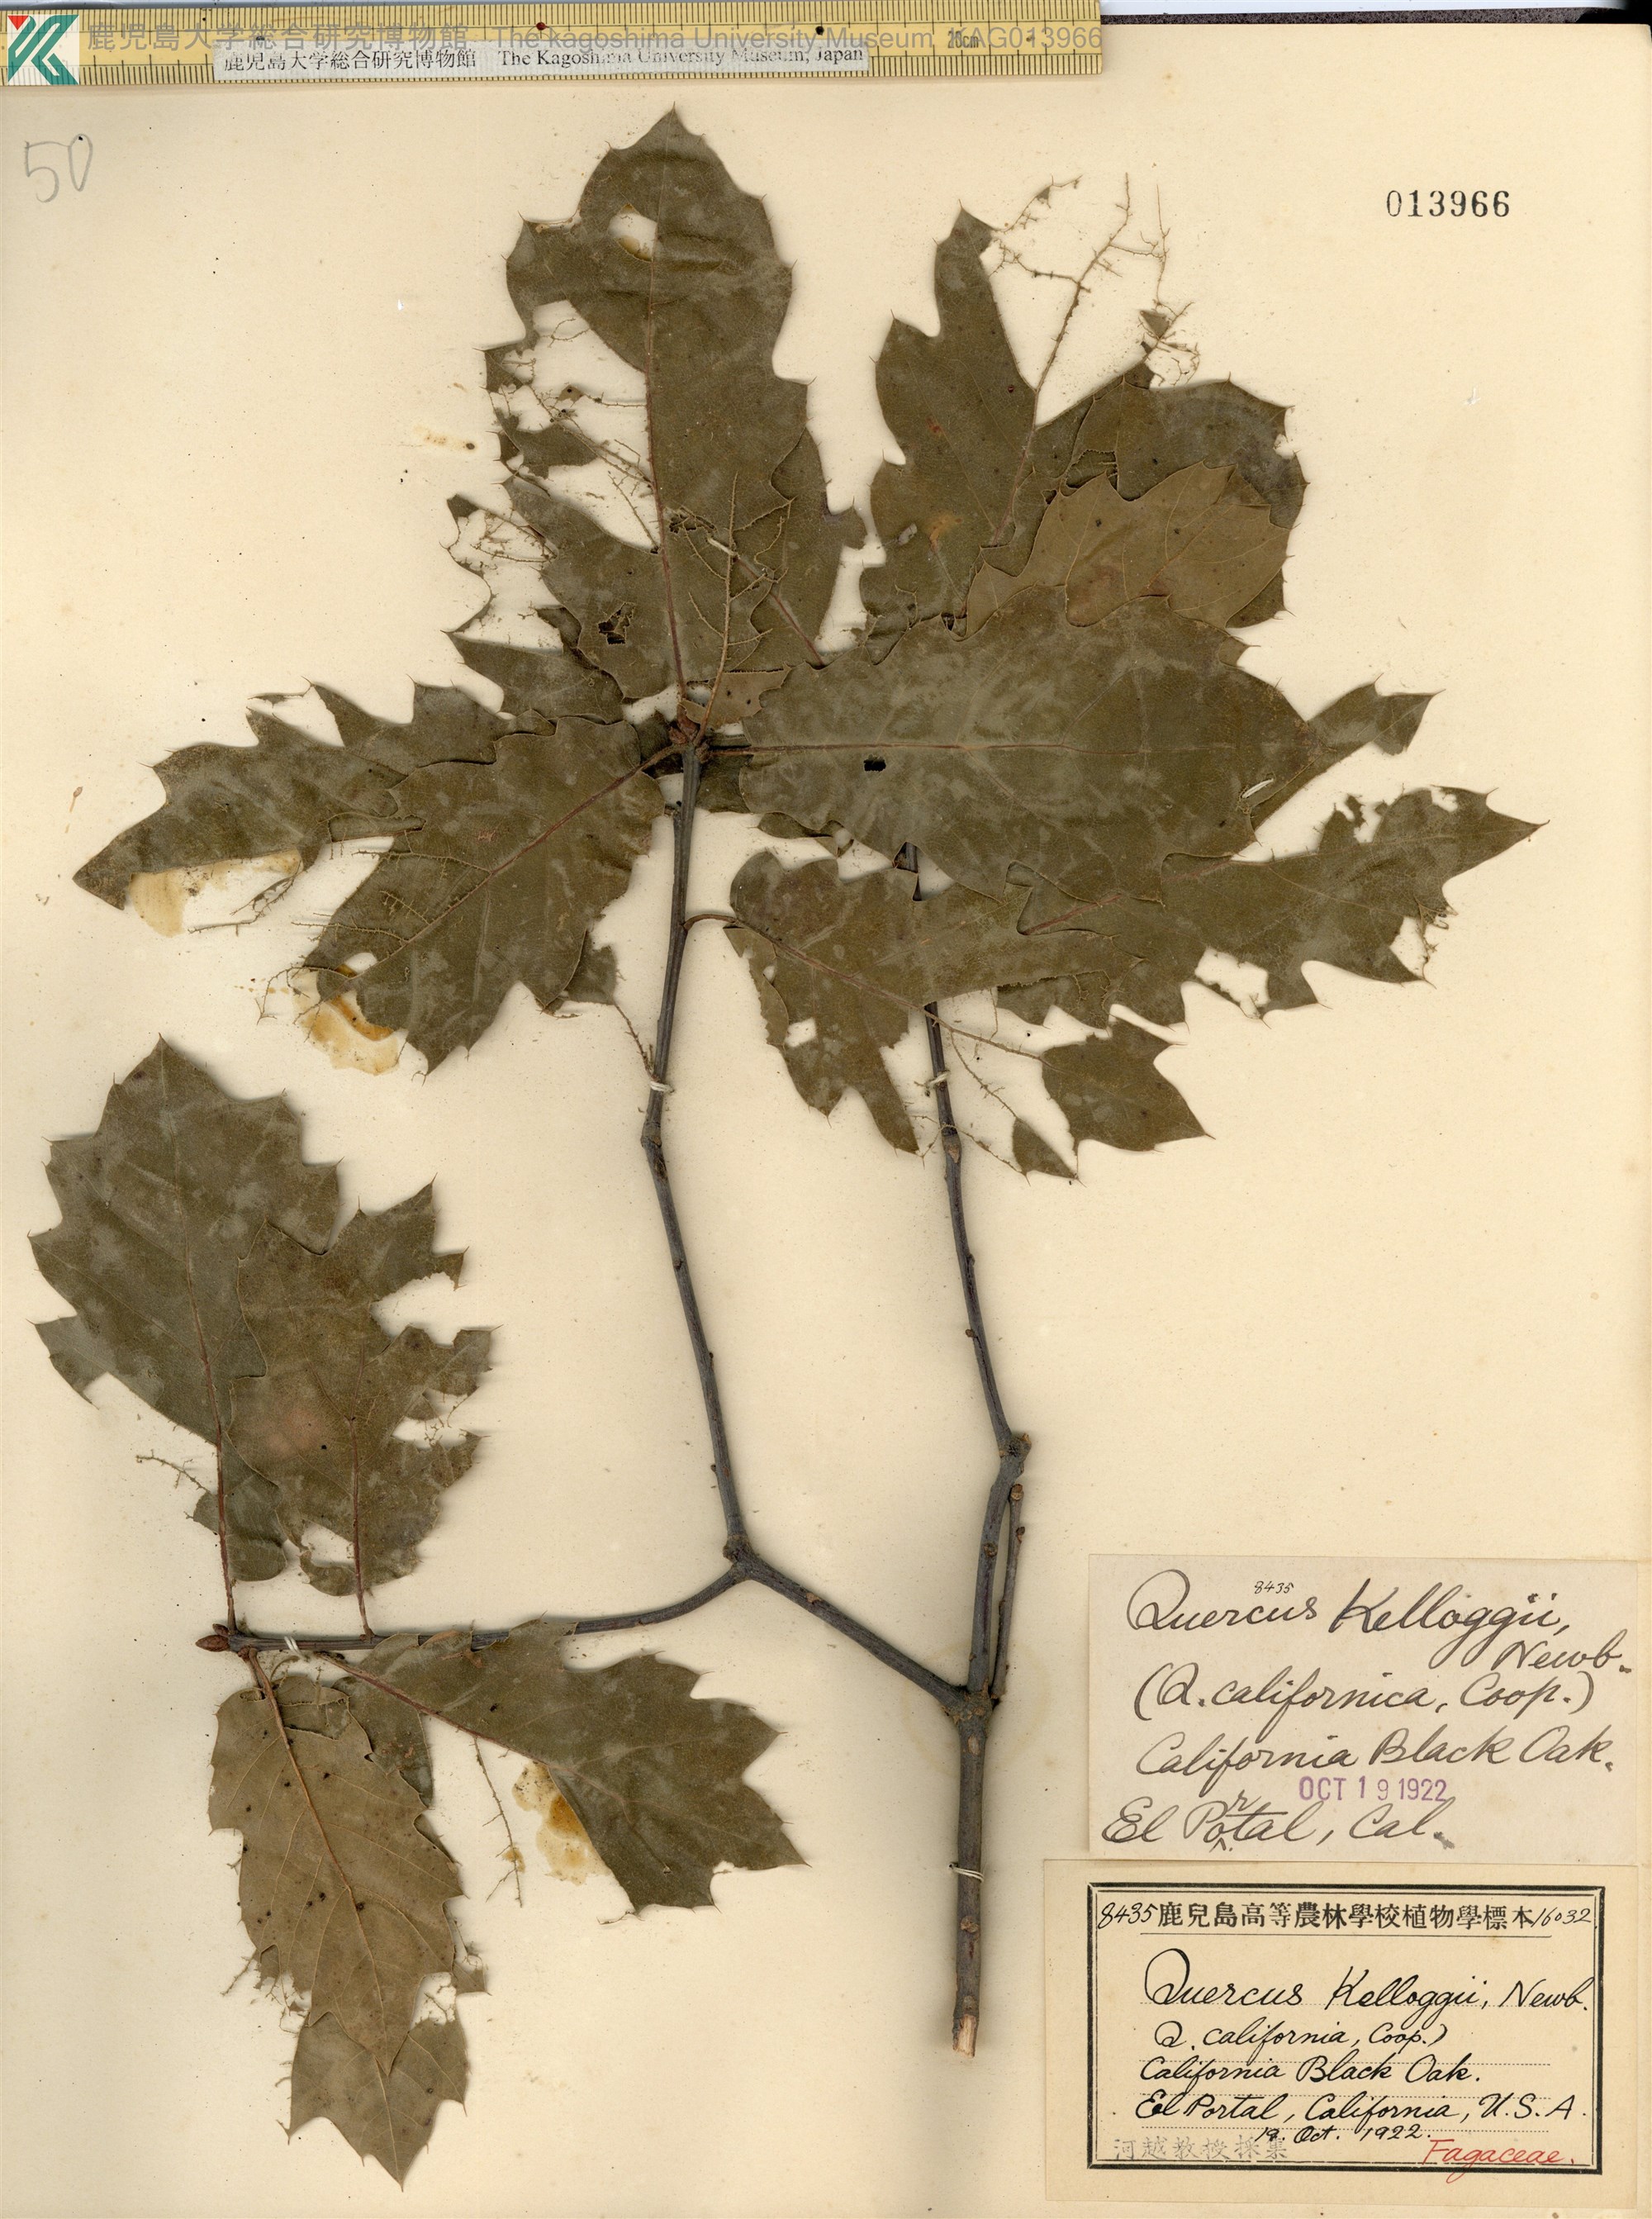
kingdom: Plantae
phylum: Tracheophyta
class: Magnoliopsida
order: Fagales
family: Fagaceae
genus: Quercus
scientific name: Quercus kelloggii
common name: California black oak
